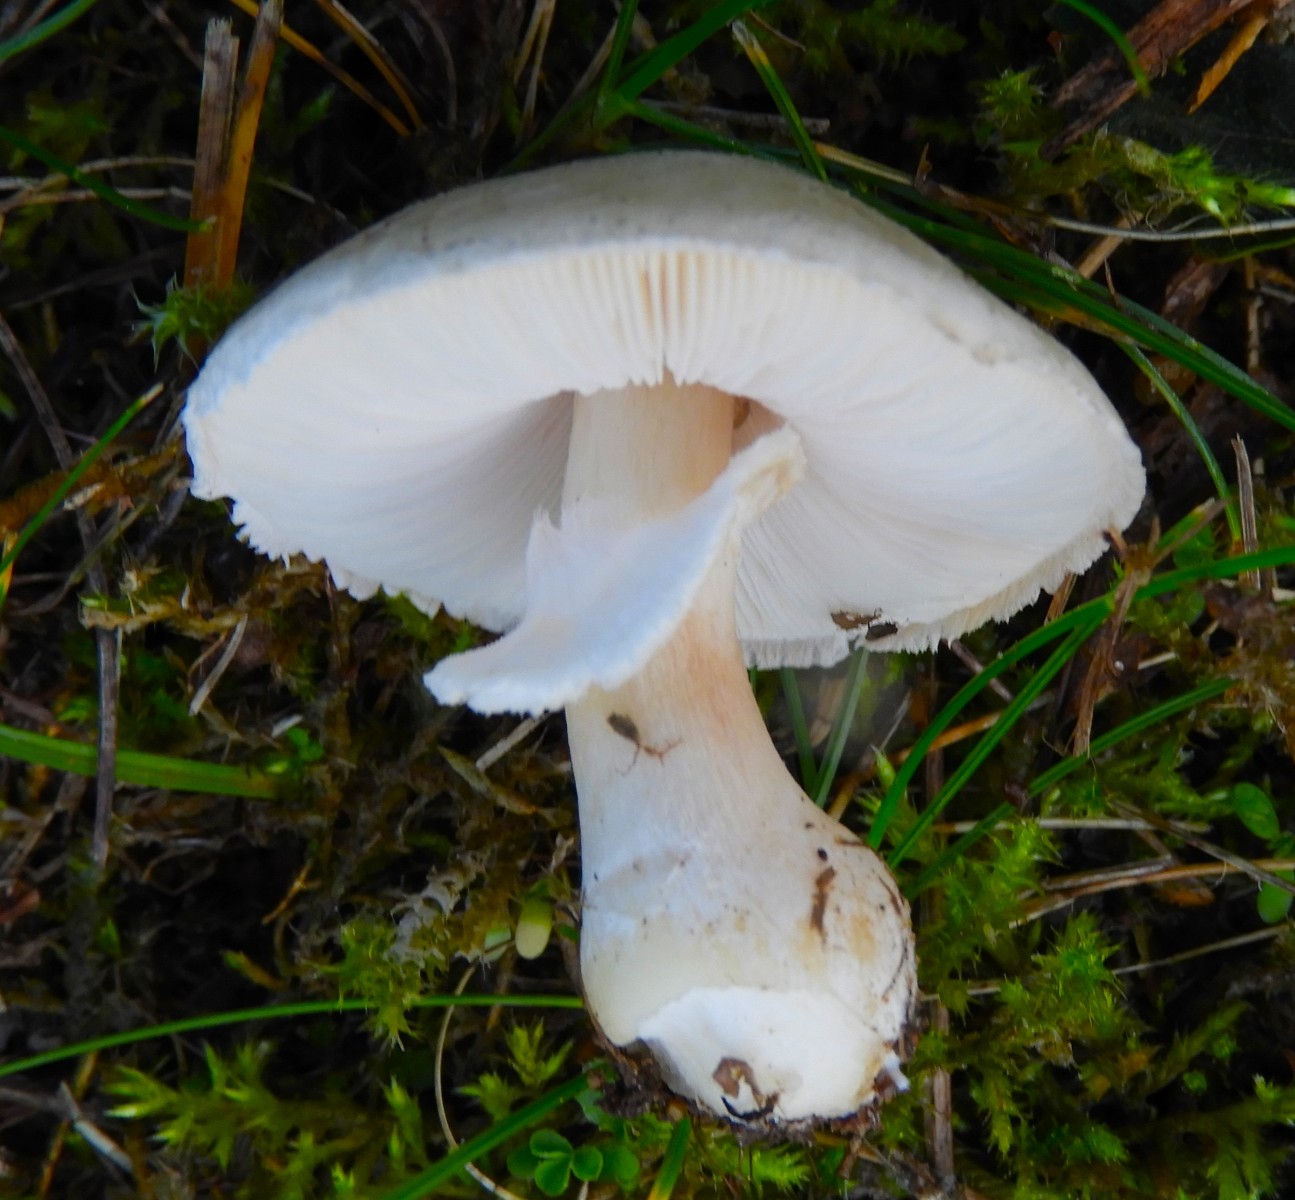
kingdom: Fungi
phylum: Basidiomycota
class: Agaricomycetes
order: Agaricales
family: Agaricaceae
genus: Leucoagaricus
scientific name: Leucoagaricus leucothites
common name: rosabladet silkehat
